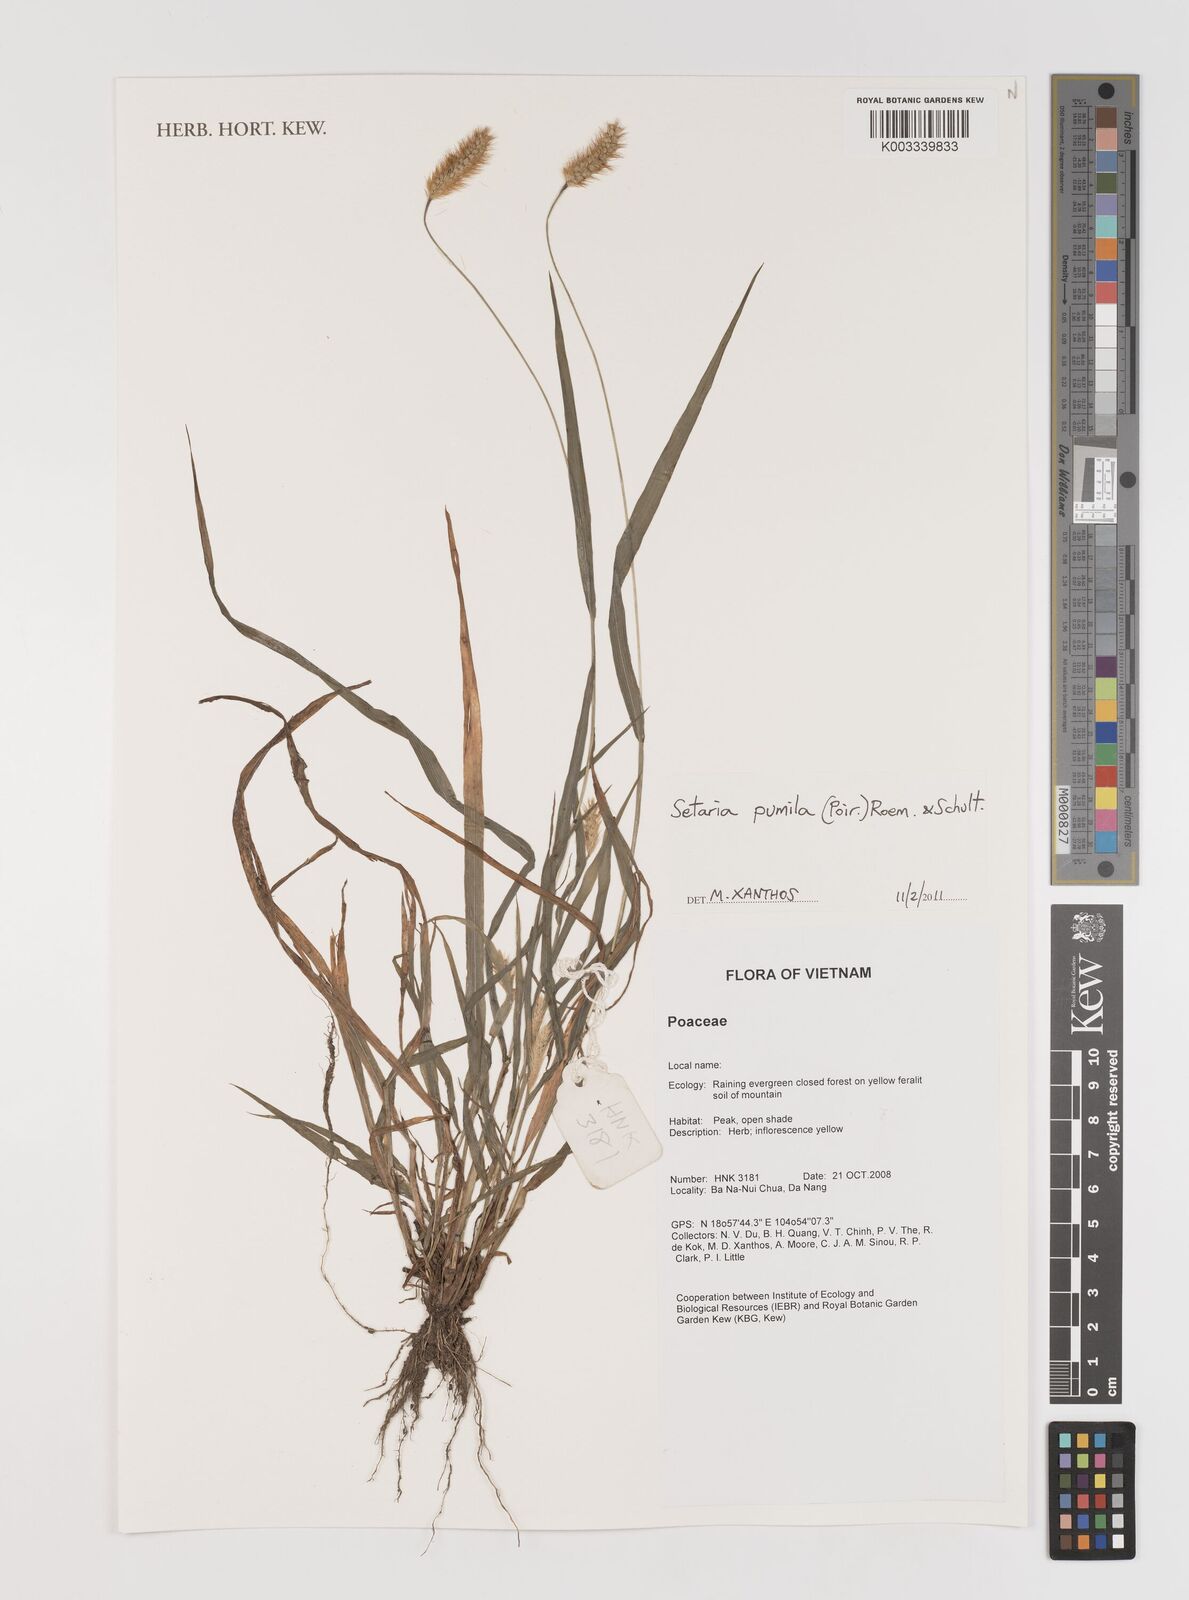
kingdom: Plantae
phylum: Tracheophyta
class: Liliopsida
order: Poales
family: Poaceae
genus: Setaria
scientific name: Setaria pumila
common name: Yellow bristle-grass
